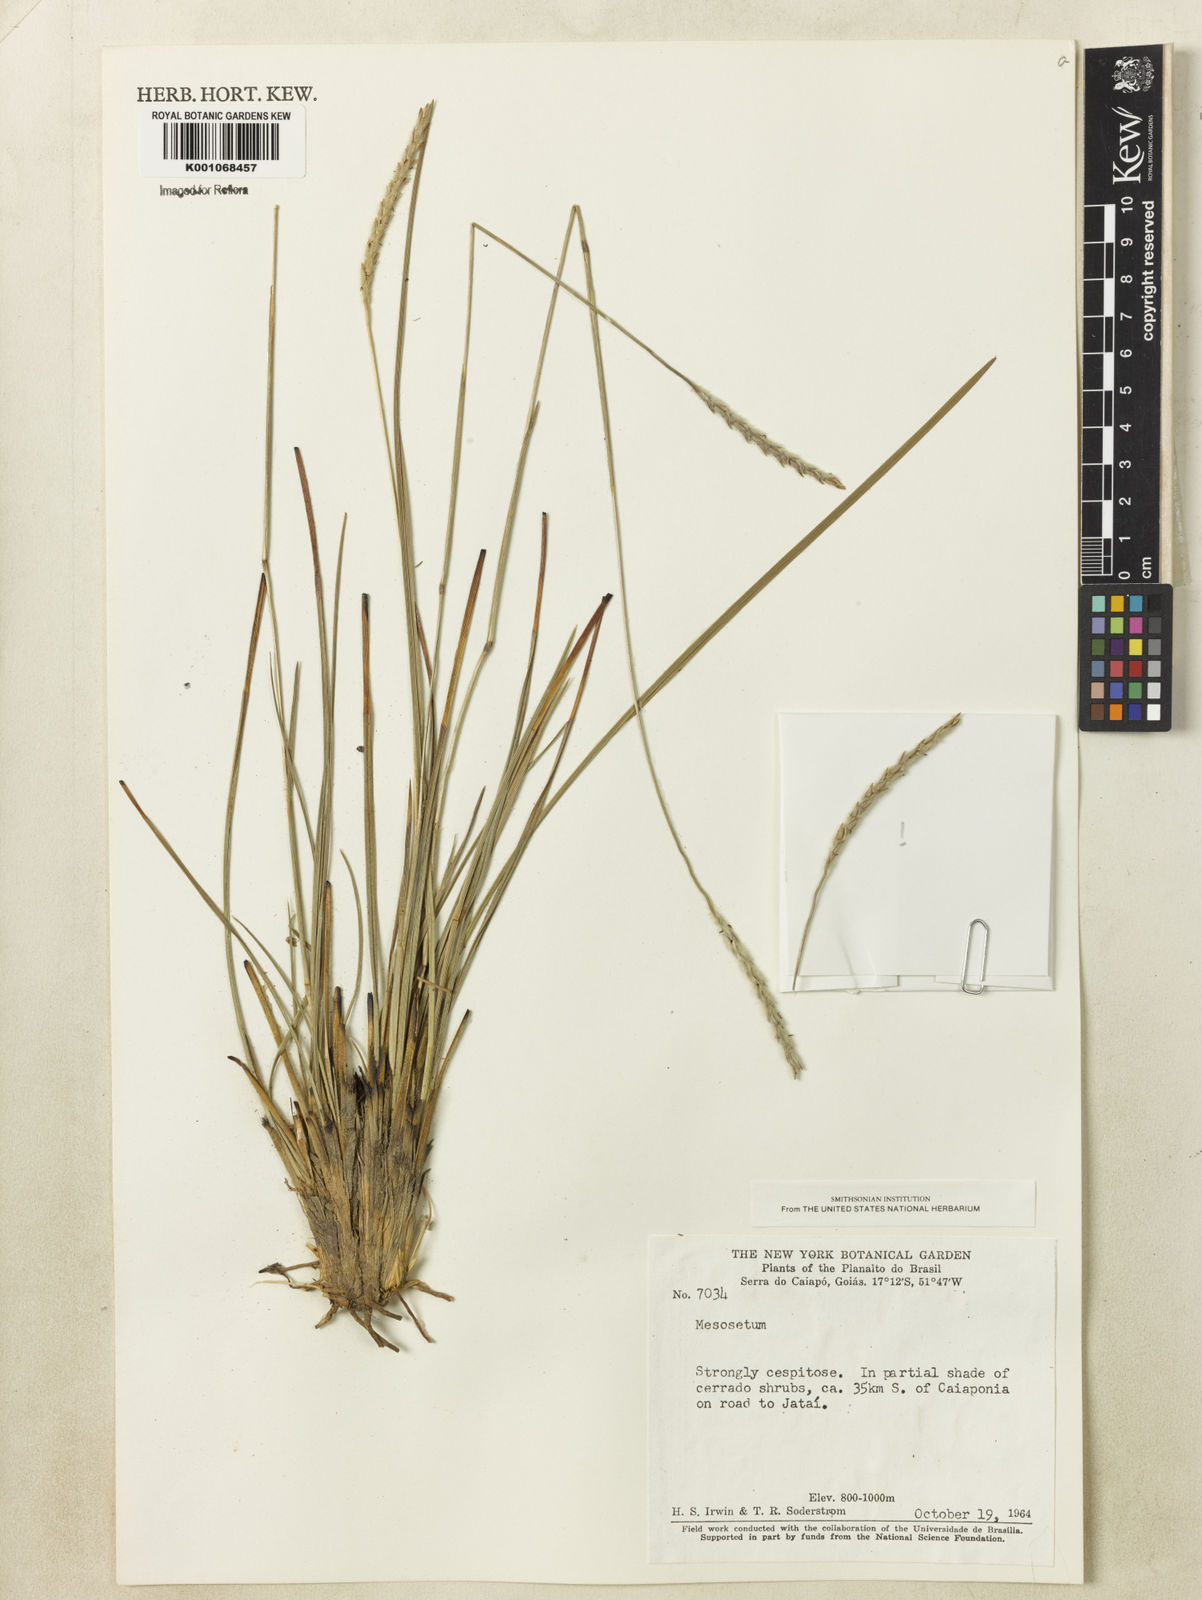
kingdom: Plantae
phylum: Tracheophyta
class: Liliopsida
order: Poales
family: Poaceae
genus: Elionurus
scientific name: Elionurus muticus
